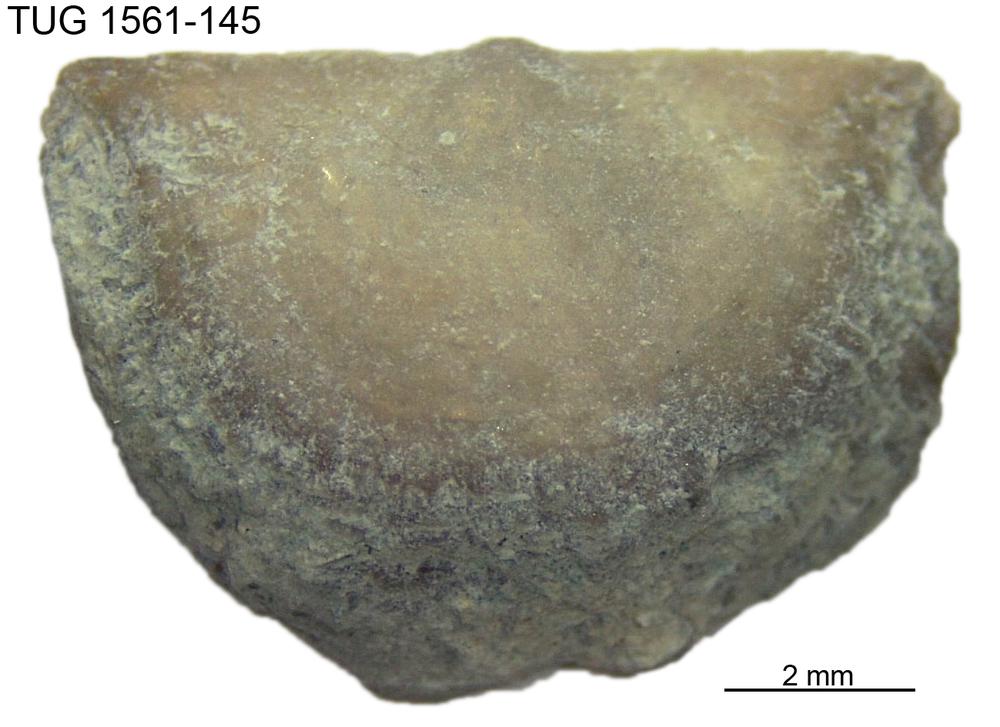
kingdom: Animalia
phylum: Brachiopoda
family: Eopholidostrophiidae
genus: Mesopholidostrophia
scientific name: Mesopholidostrophia Leptaena laevigata
